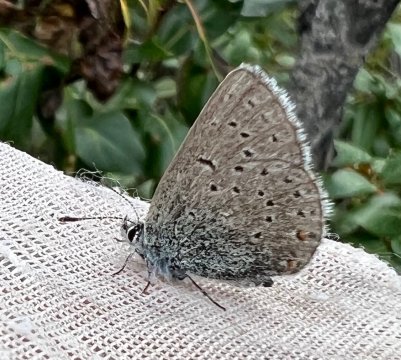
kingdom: Animalia
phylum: Arthropoda
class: Insecta
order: Lepidoptera
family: Lycaenidae
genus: Plebejus
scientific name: Plebejus saepiolus
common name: Greenish Blue
